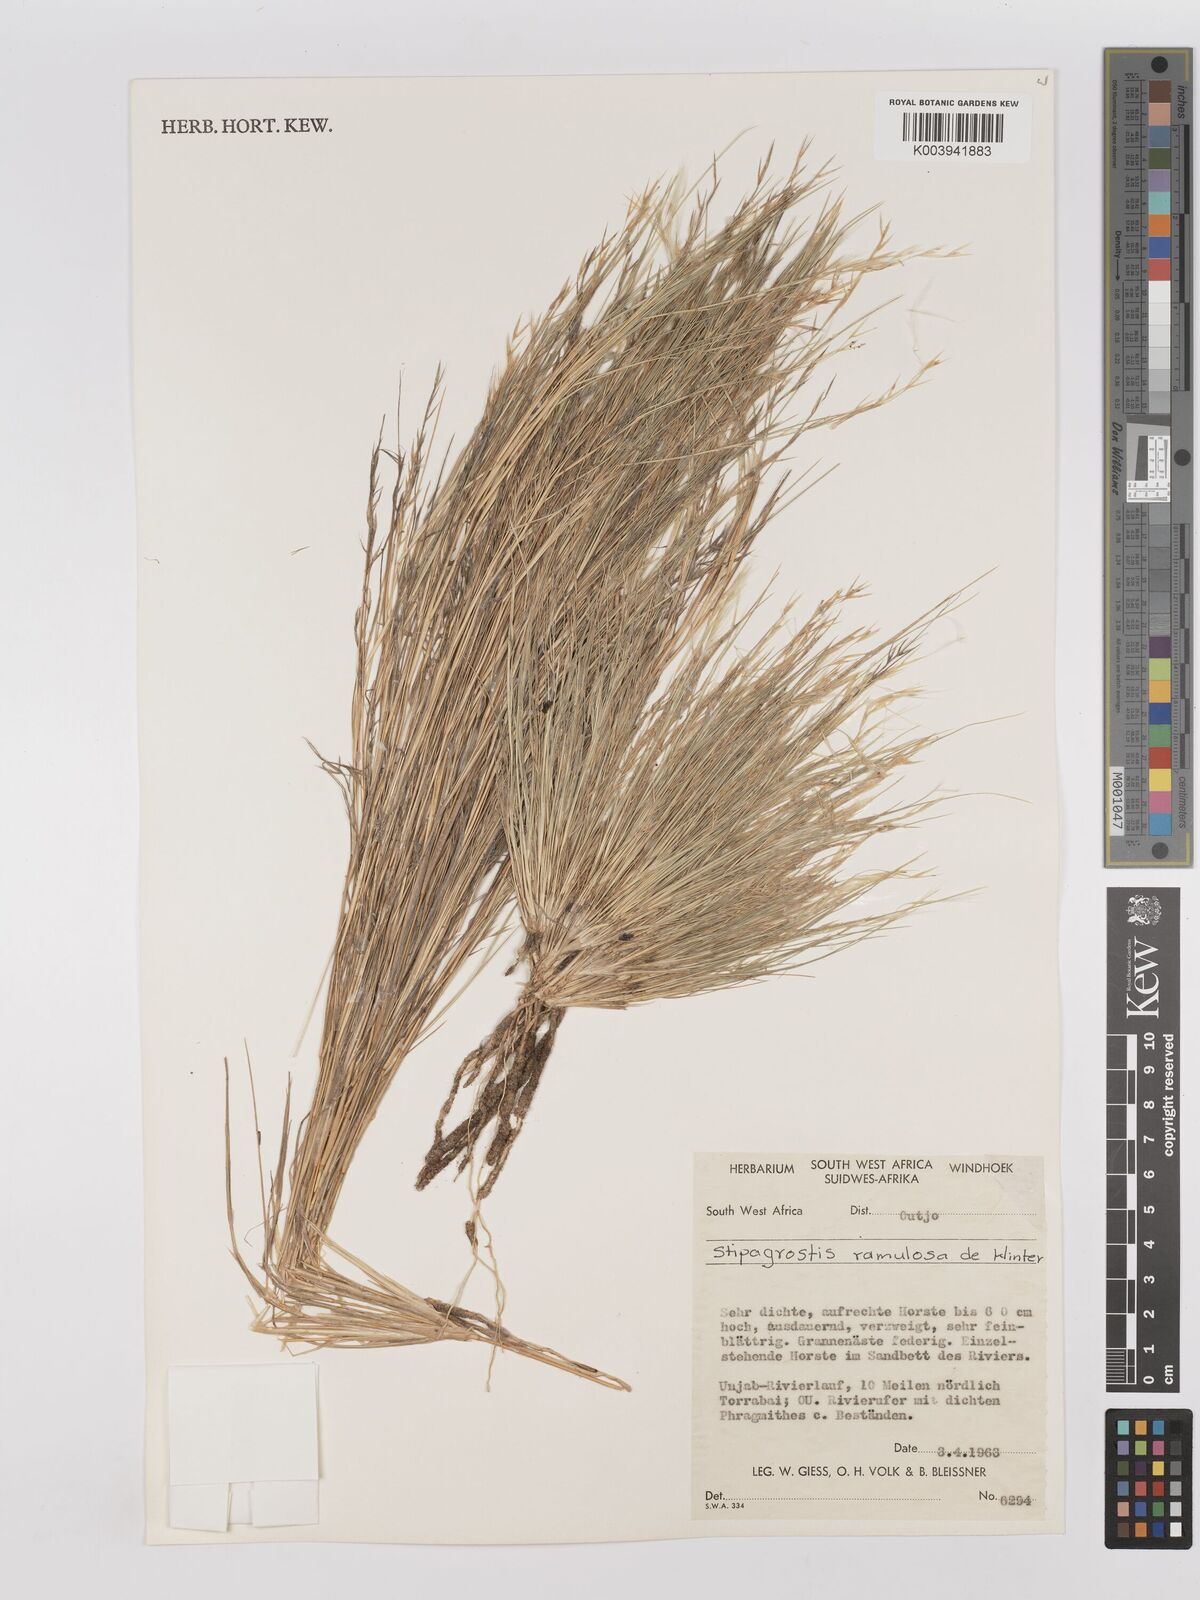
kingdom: Plantae
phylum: Tracheophyta
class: Liliopsida
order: Poales
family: Poaceae
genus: Stipagrostis
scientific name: Stipagrostis ramulosa
